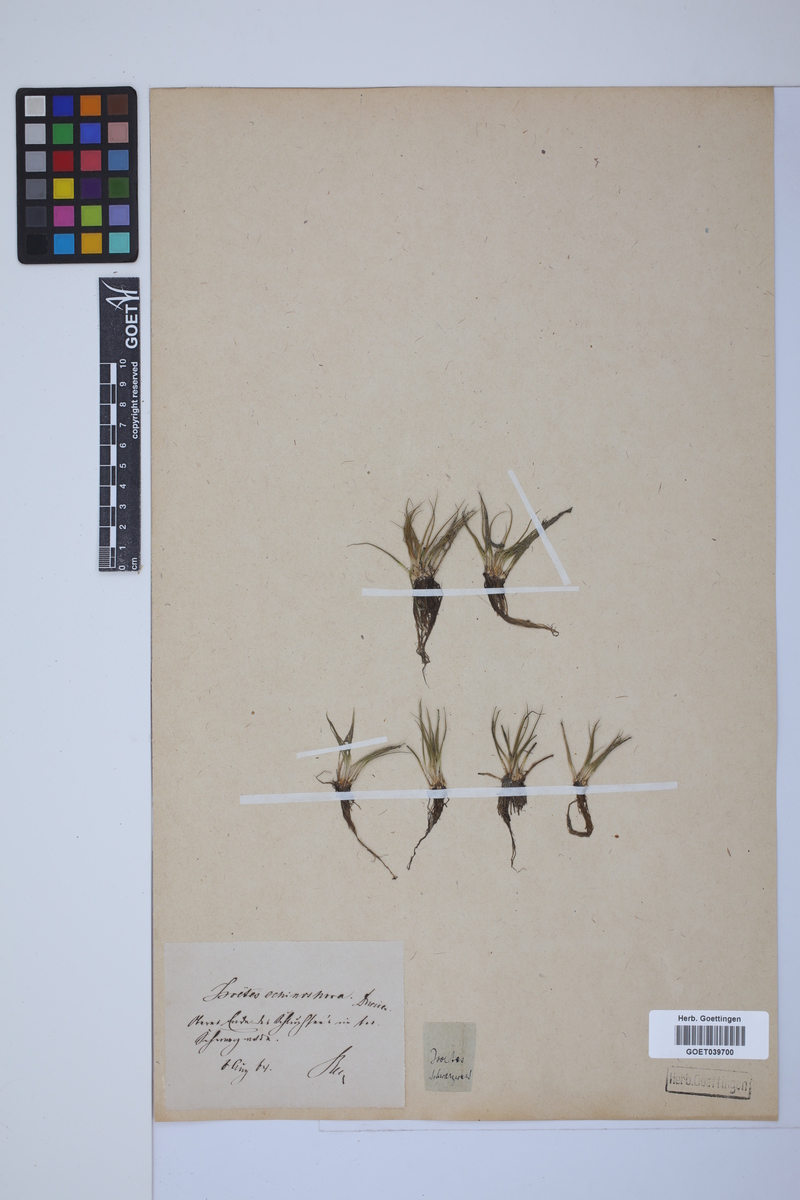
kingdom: Plantae
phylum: Tracheophyta
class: Lycopodiopsida
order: Isoetales
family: Isoetaceae
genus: Isoetes
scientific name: Isoetes echinospora
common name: Spring quillwort
